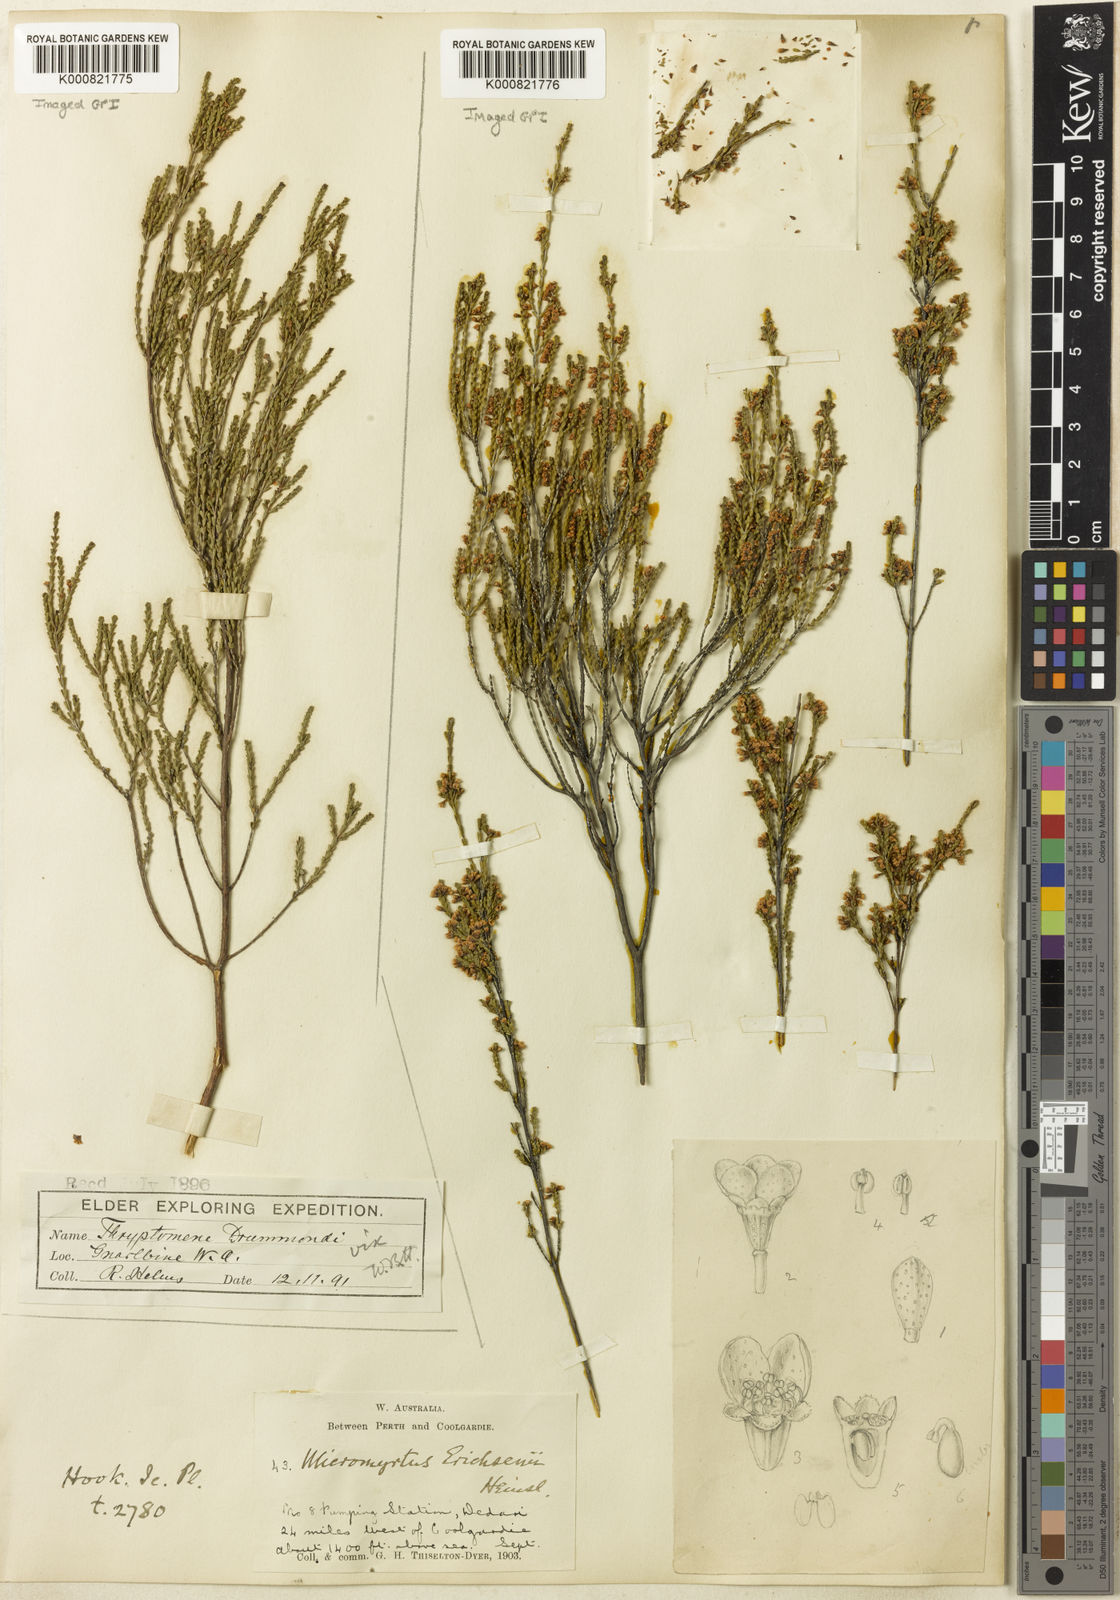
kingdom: Plantae
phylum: Tracheophyta
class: Magnoliopsida
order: Myrtales
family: Myrtaceae
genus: Micromyrtus
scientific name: Micromyrtus erichsenii
